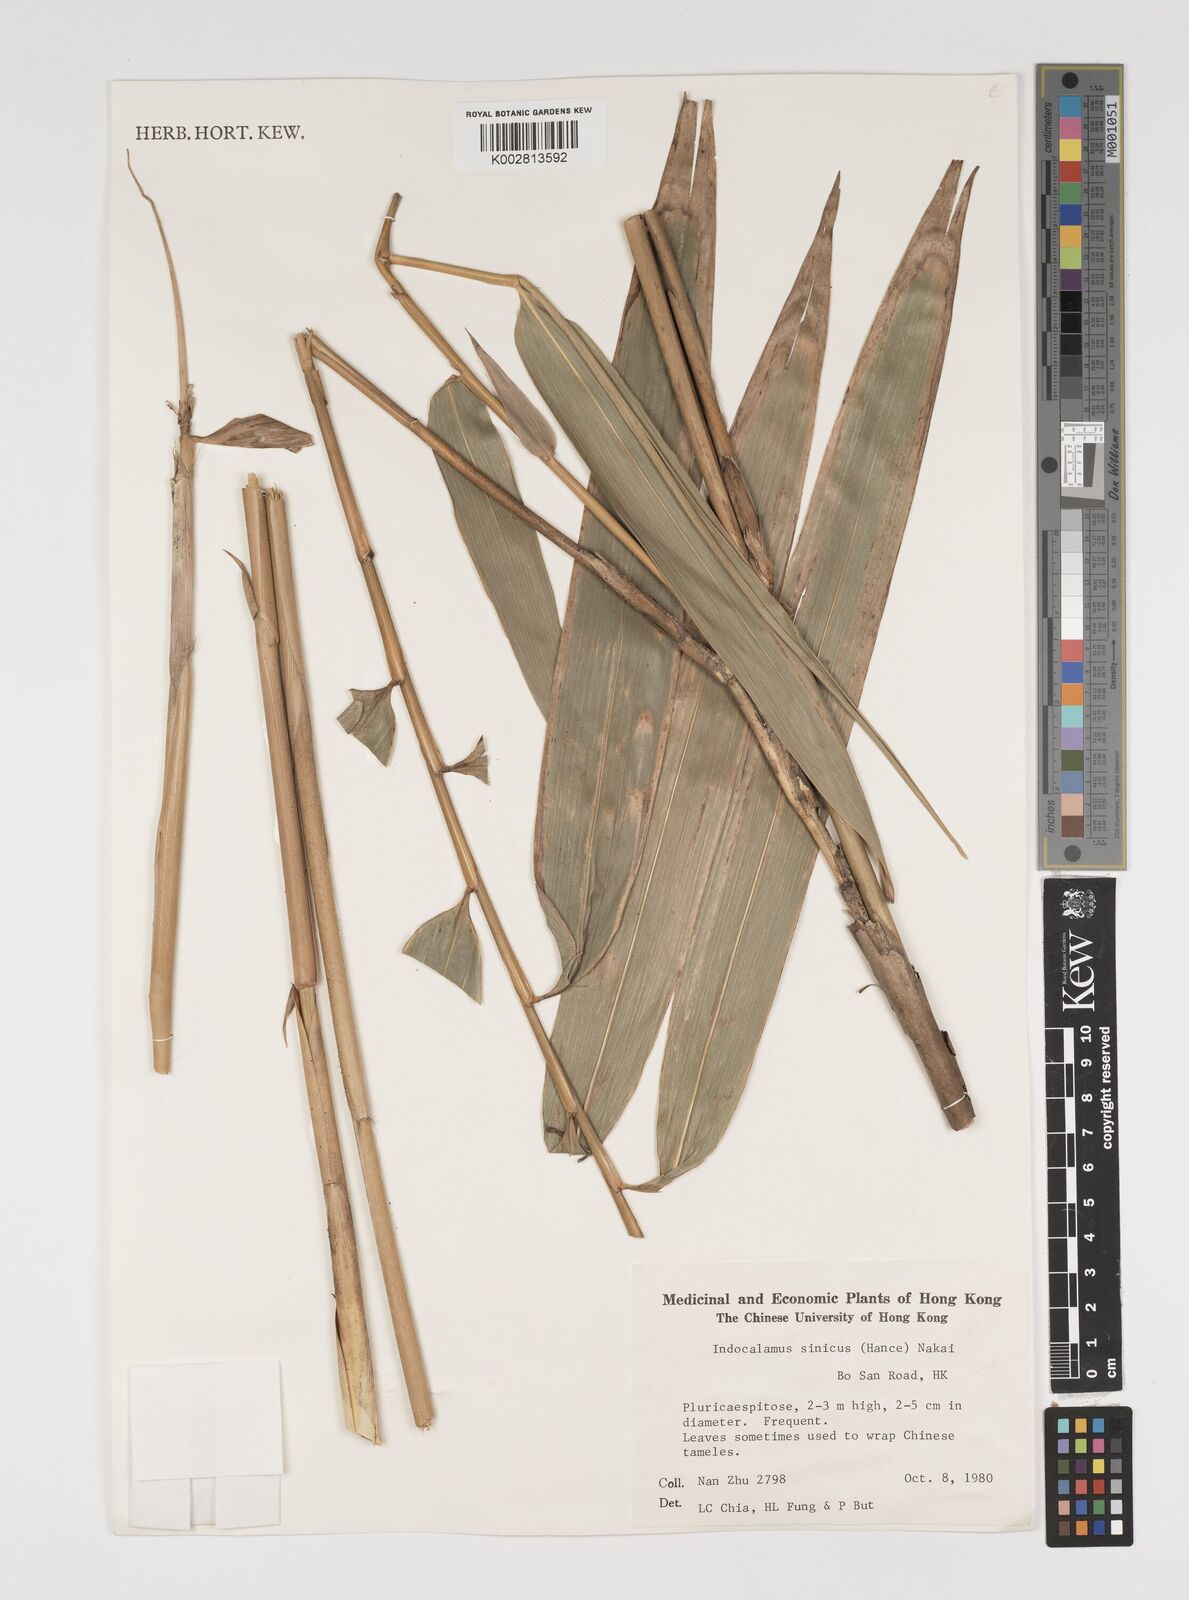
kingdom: Plantae
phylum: Tracheophyta
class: Liliopsida
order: Poales
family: Poaceae
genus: Indocalamus
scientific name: Indocalamus sinicus
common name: Chinese cane
